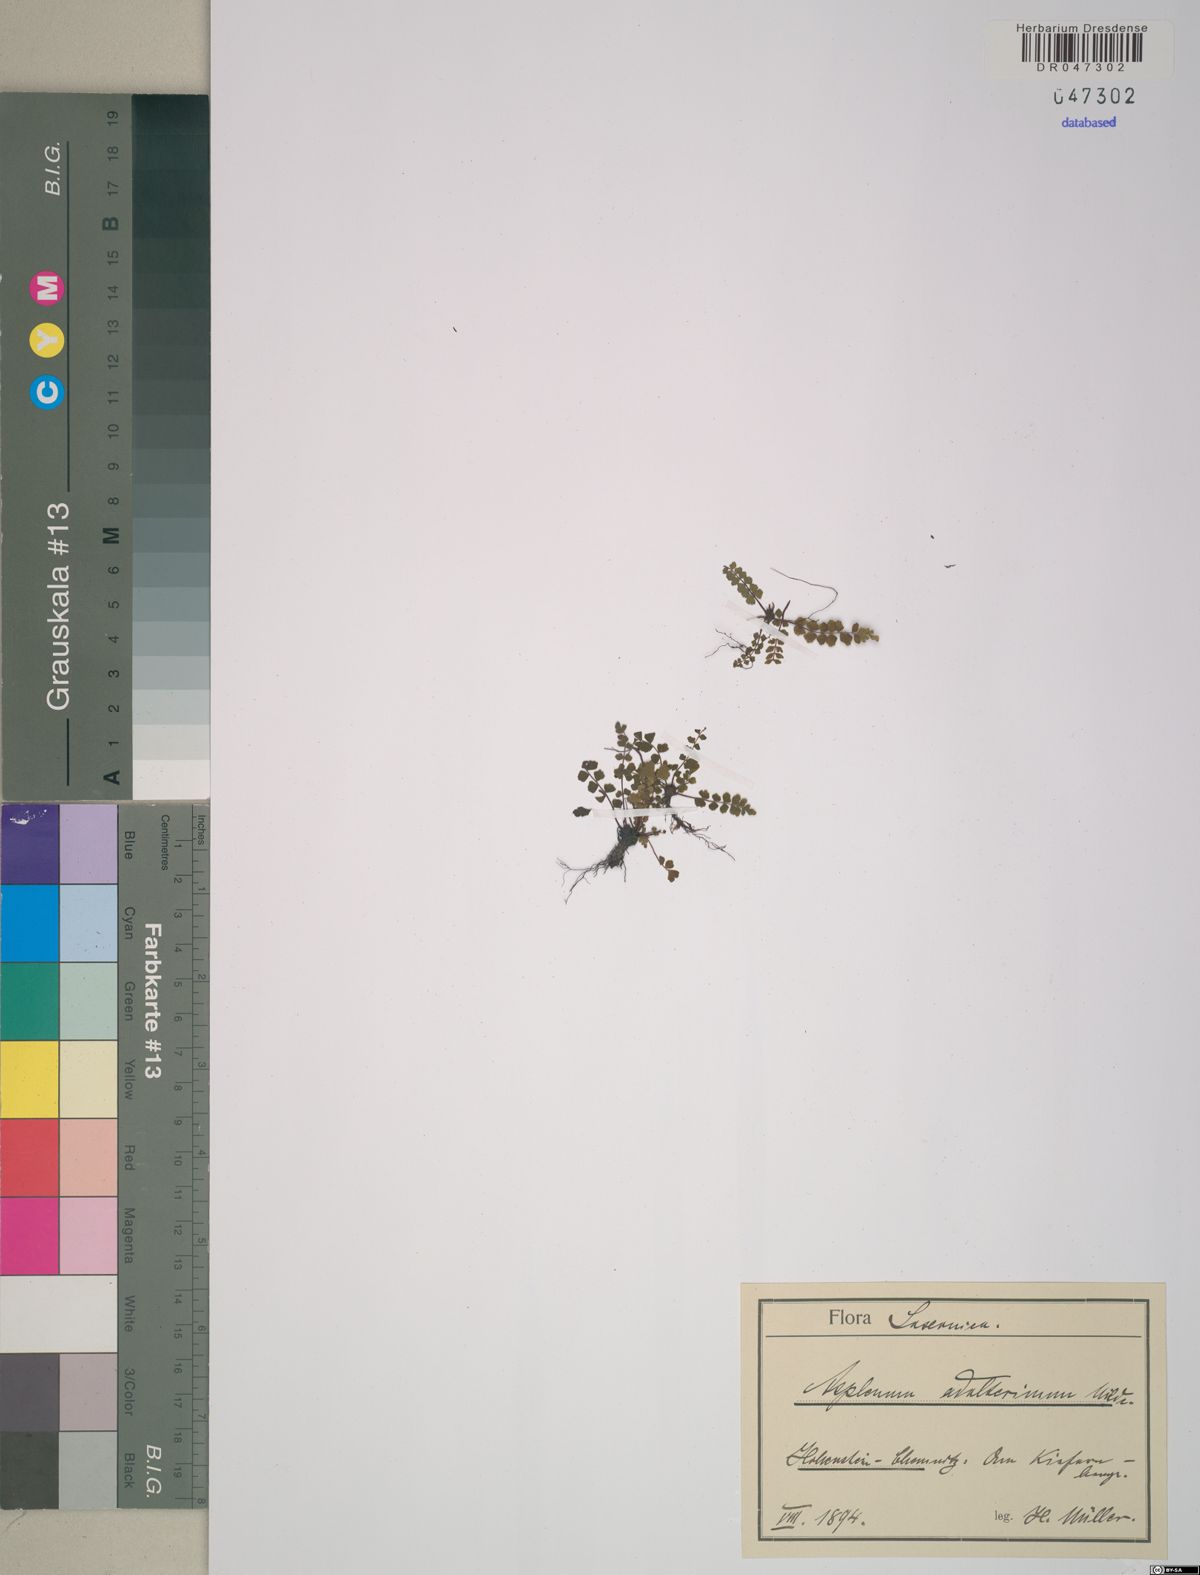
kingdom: Plantae
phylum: Tracheophyta
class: Polypodiopsida
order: Polypodiales
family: Aspleniaceae
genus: Asplenium
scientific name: Asplenium adulterinum
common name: Adulterated spleenwort
